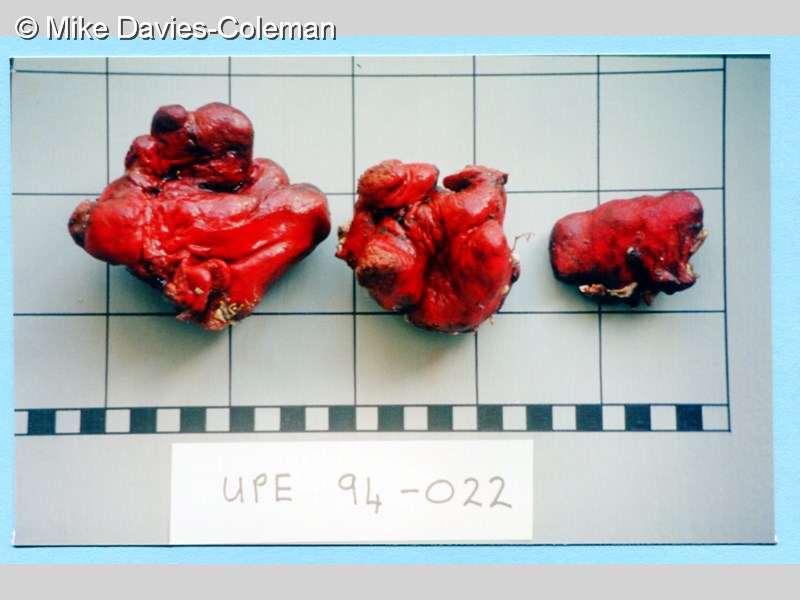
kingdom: Animalia
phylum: Porifera
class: Demospongiae
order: Poecilosclerida
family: Desmacididae
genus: Desmacidon
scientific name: Desmacidon
